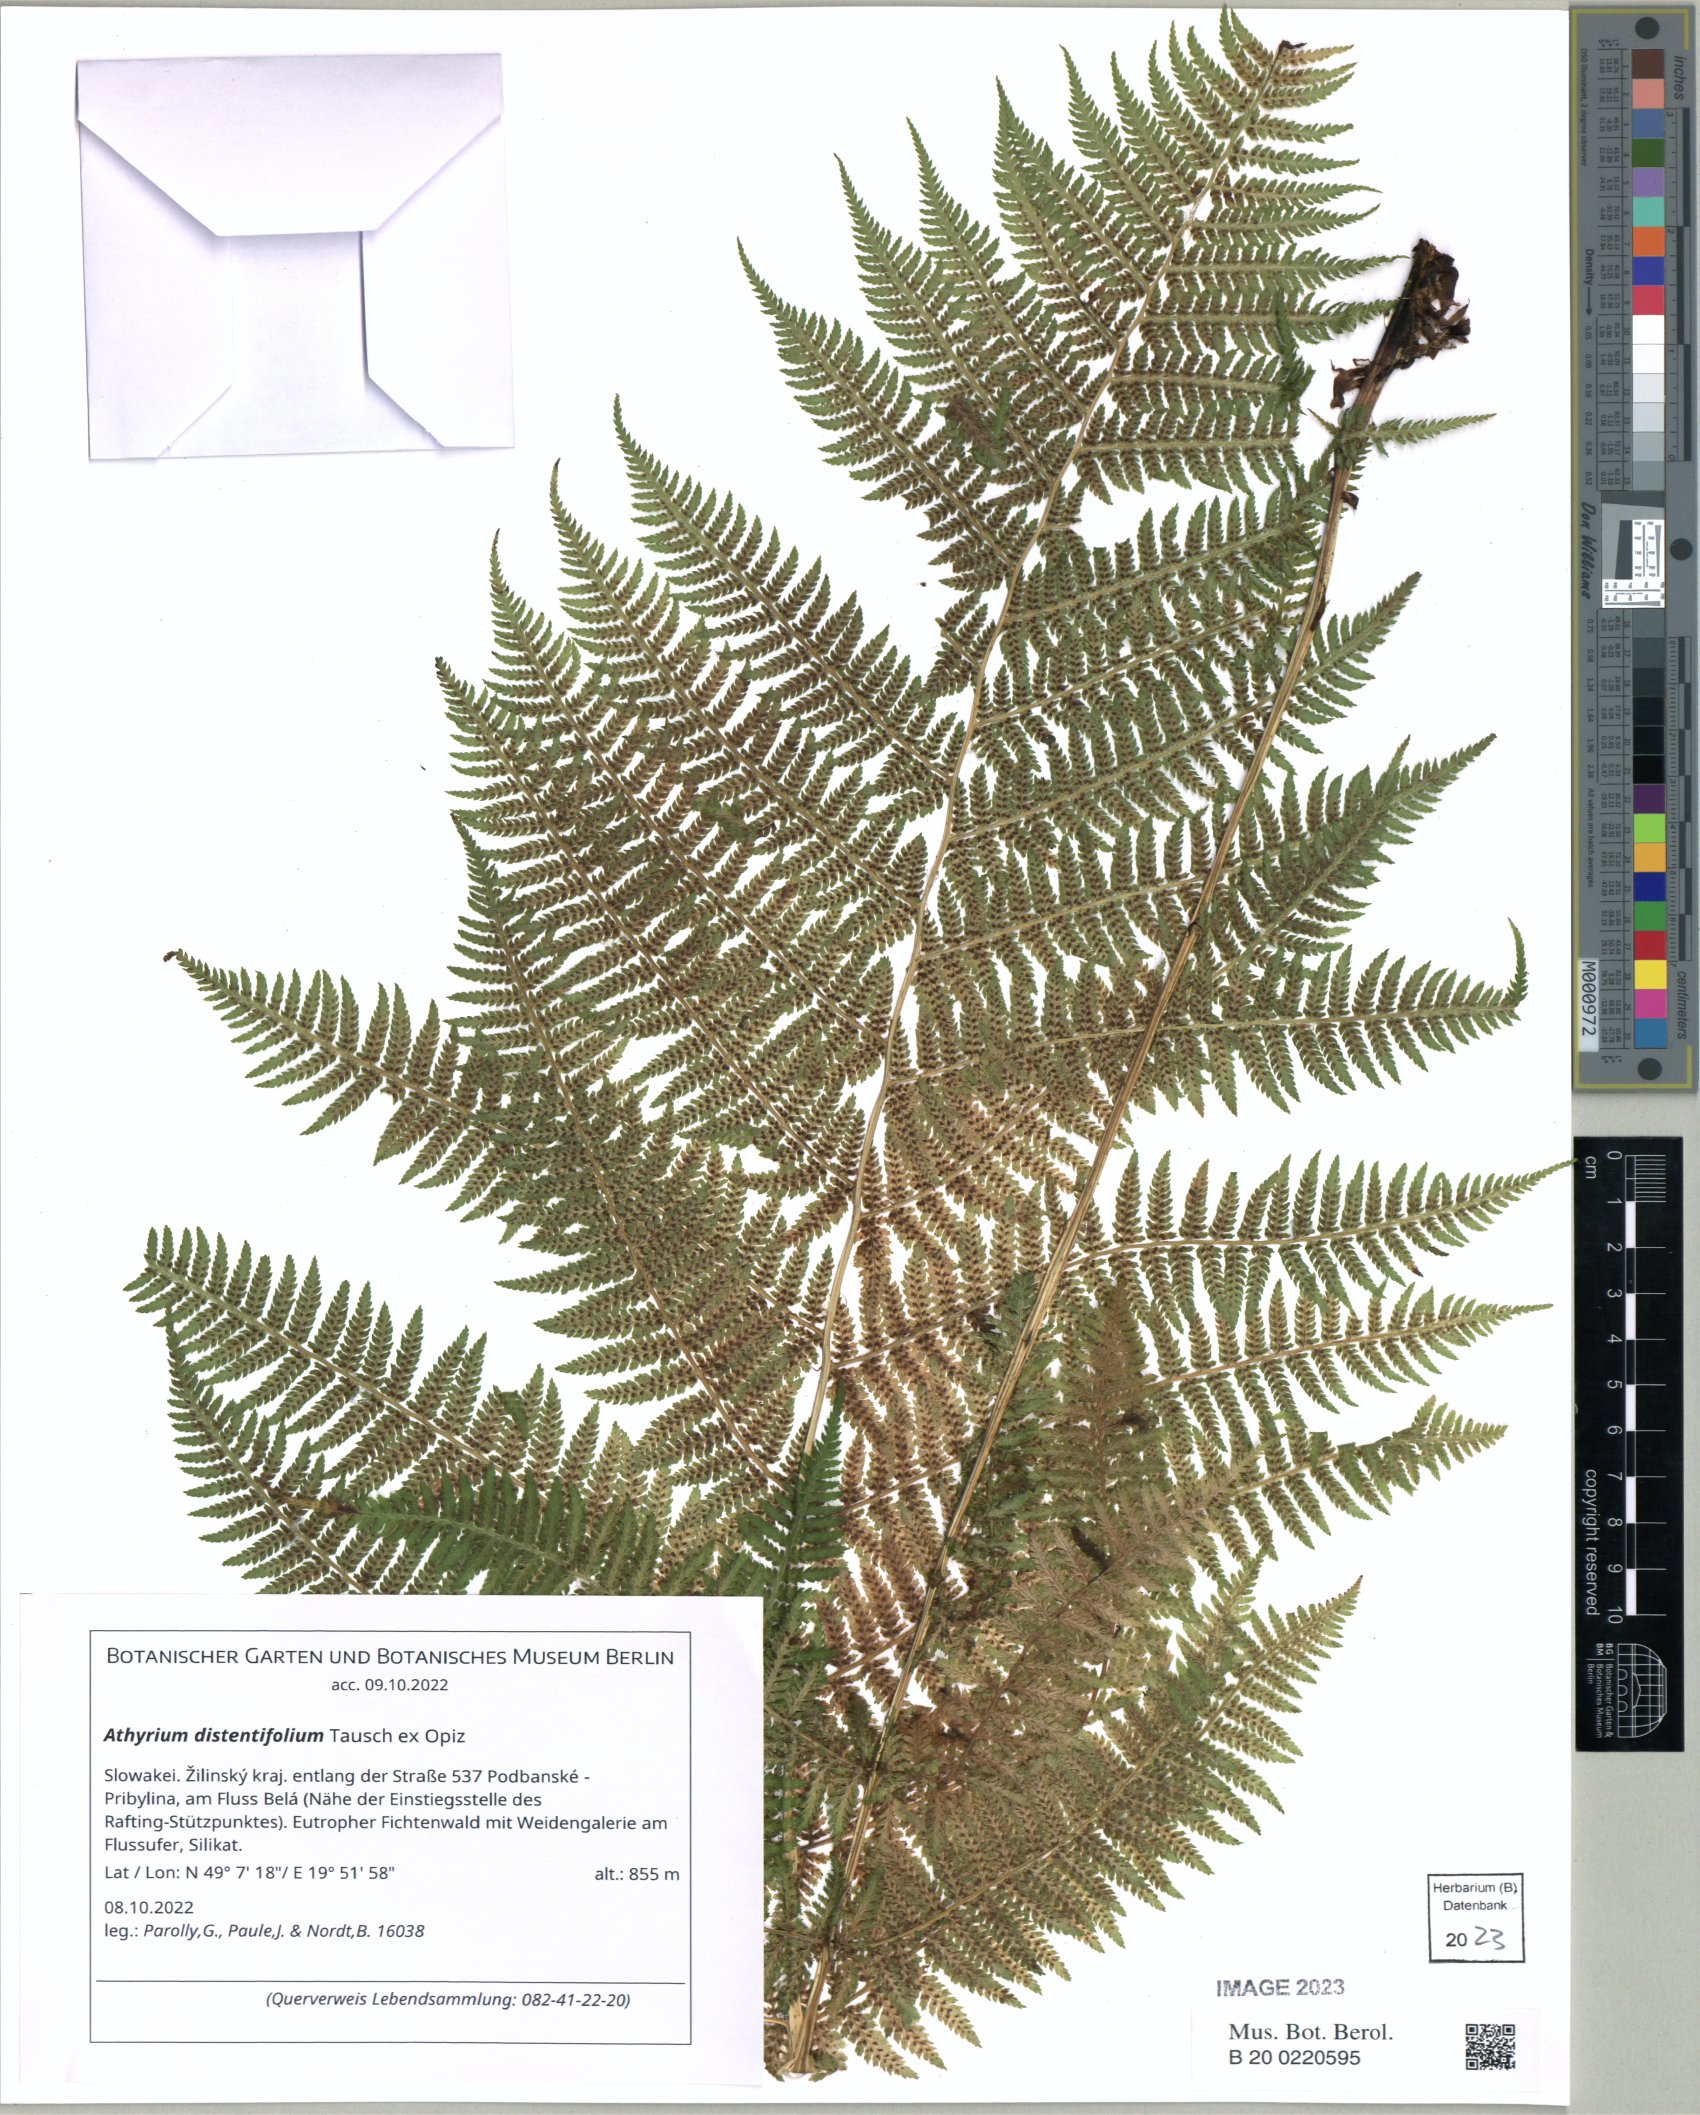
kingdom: Plantae
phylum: Tracheophyta
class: Polypodiopsida
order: Polypodiales
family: Athyriaceae
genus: Pseudathyrium
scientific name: Pseudathyrium alpestre
